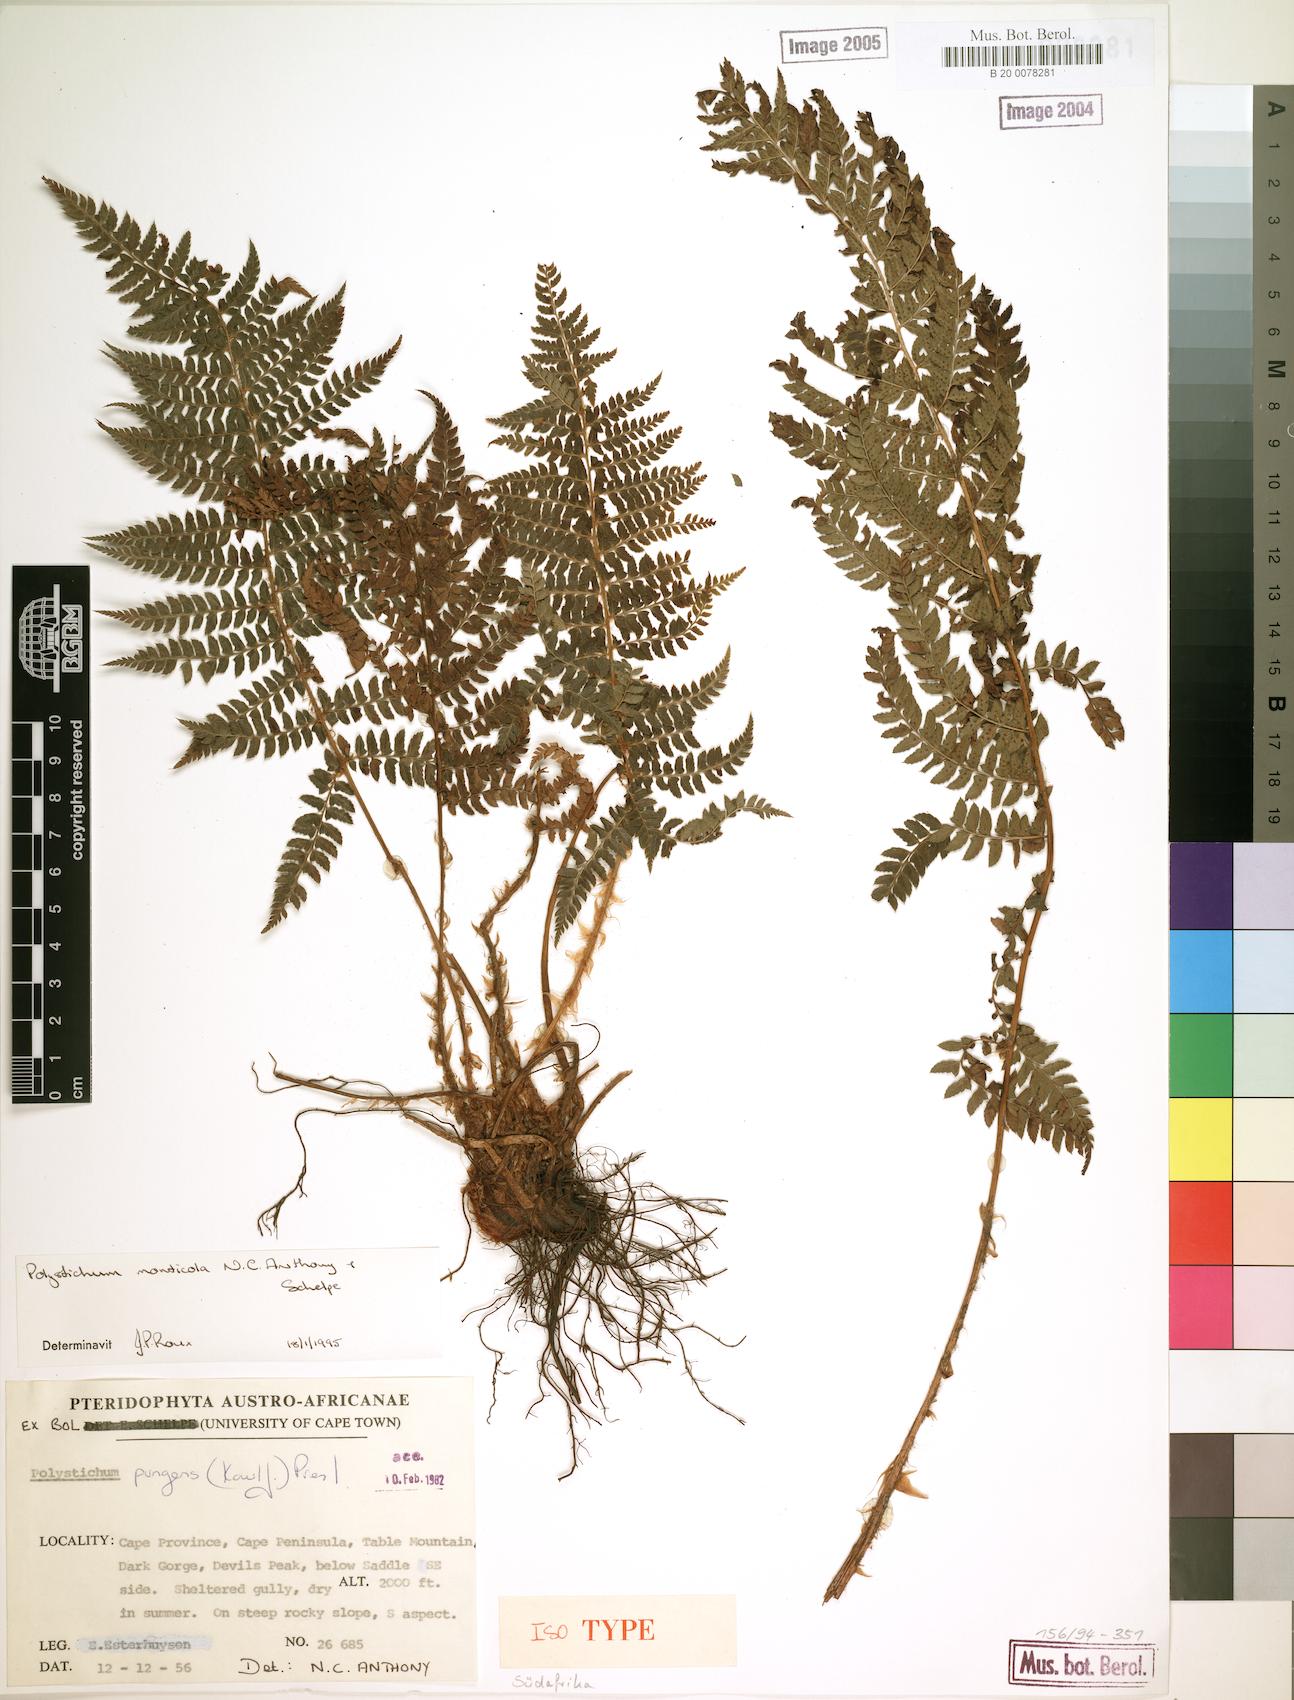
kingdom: Plantae
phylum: Tracheophyta
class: Polypodiopsida
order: Polypodiales
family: Dryopteridaceae
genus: Polystichum
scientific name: Polystichum monticola
